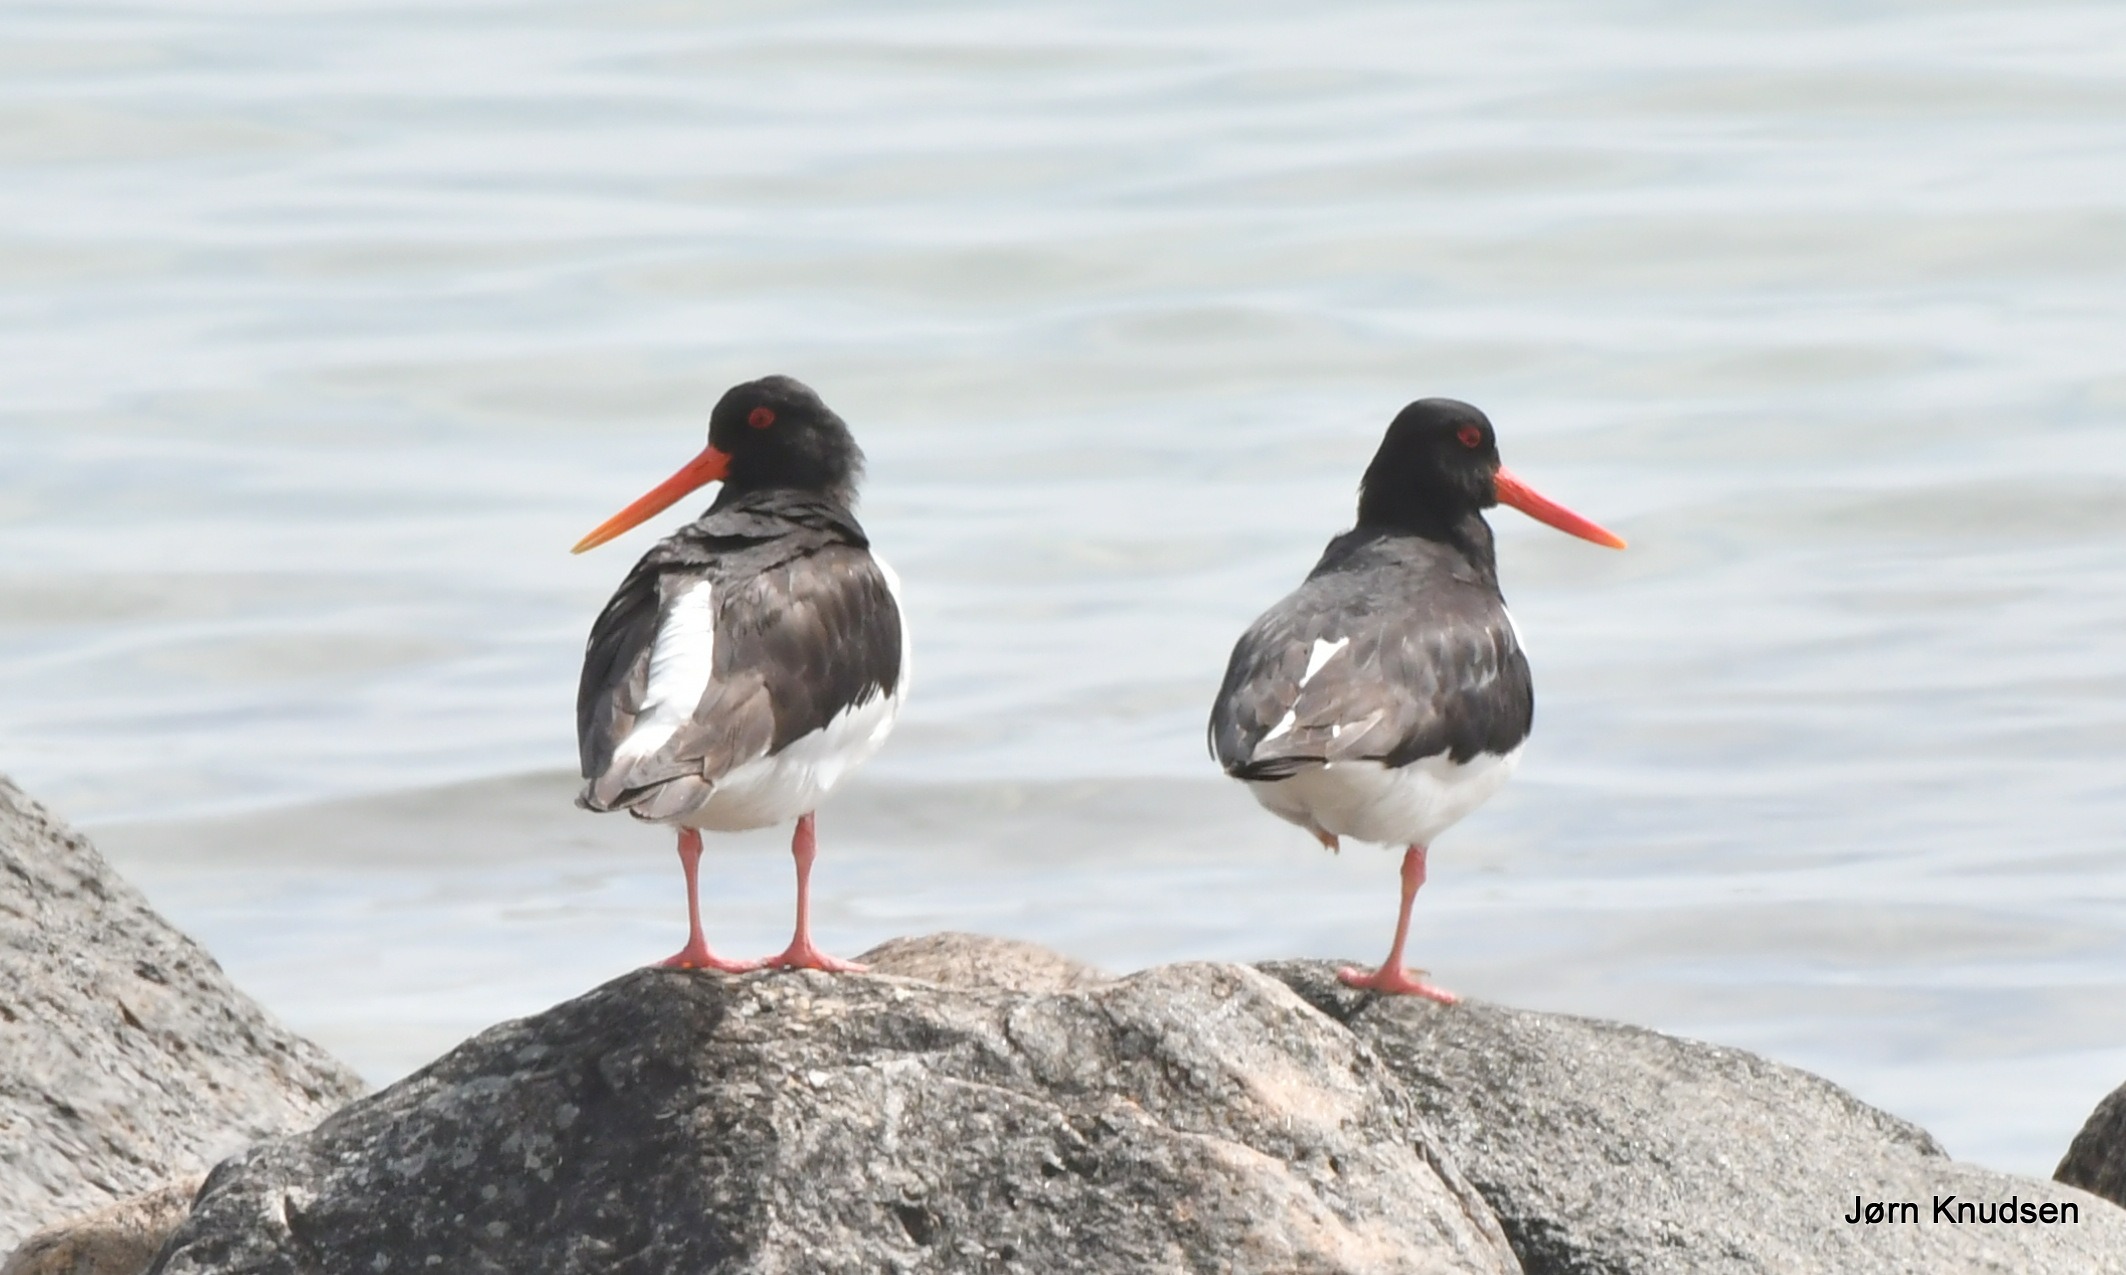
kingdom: Animalia
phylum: Chordata
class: Aves
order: Charadriiformes
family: Haematopodidae
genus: Haematopus
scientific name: Haematopus ostralegus
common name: Strandskade
